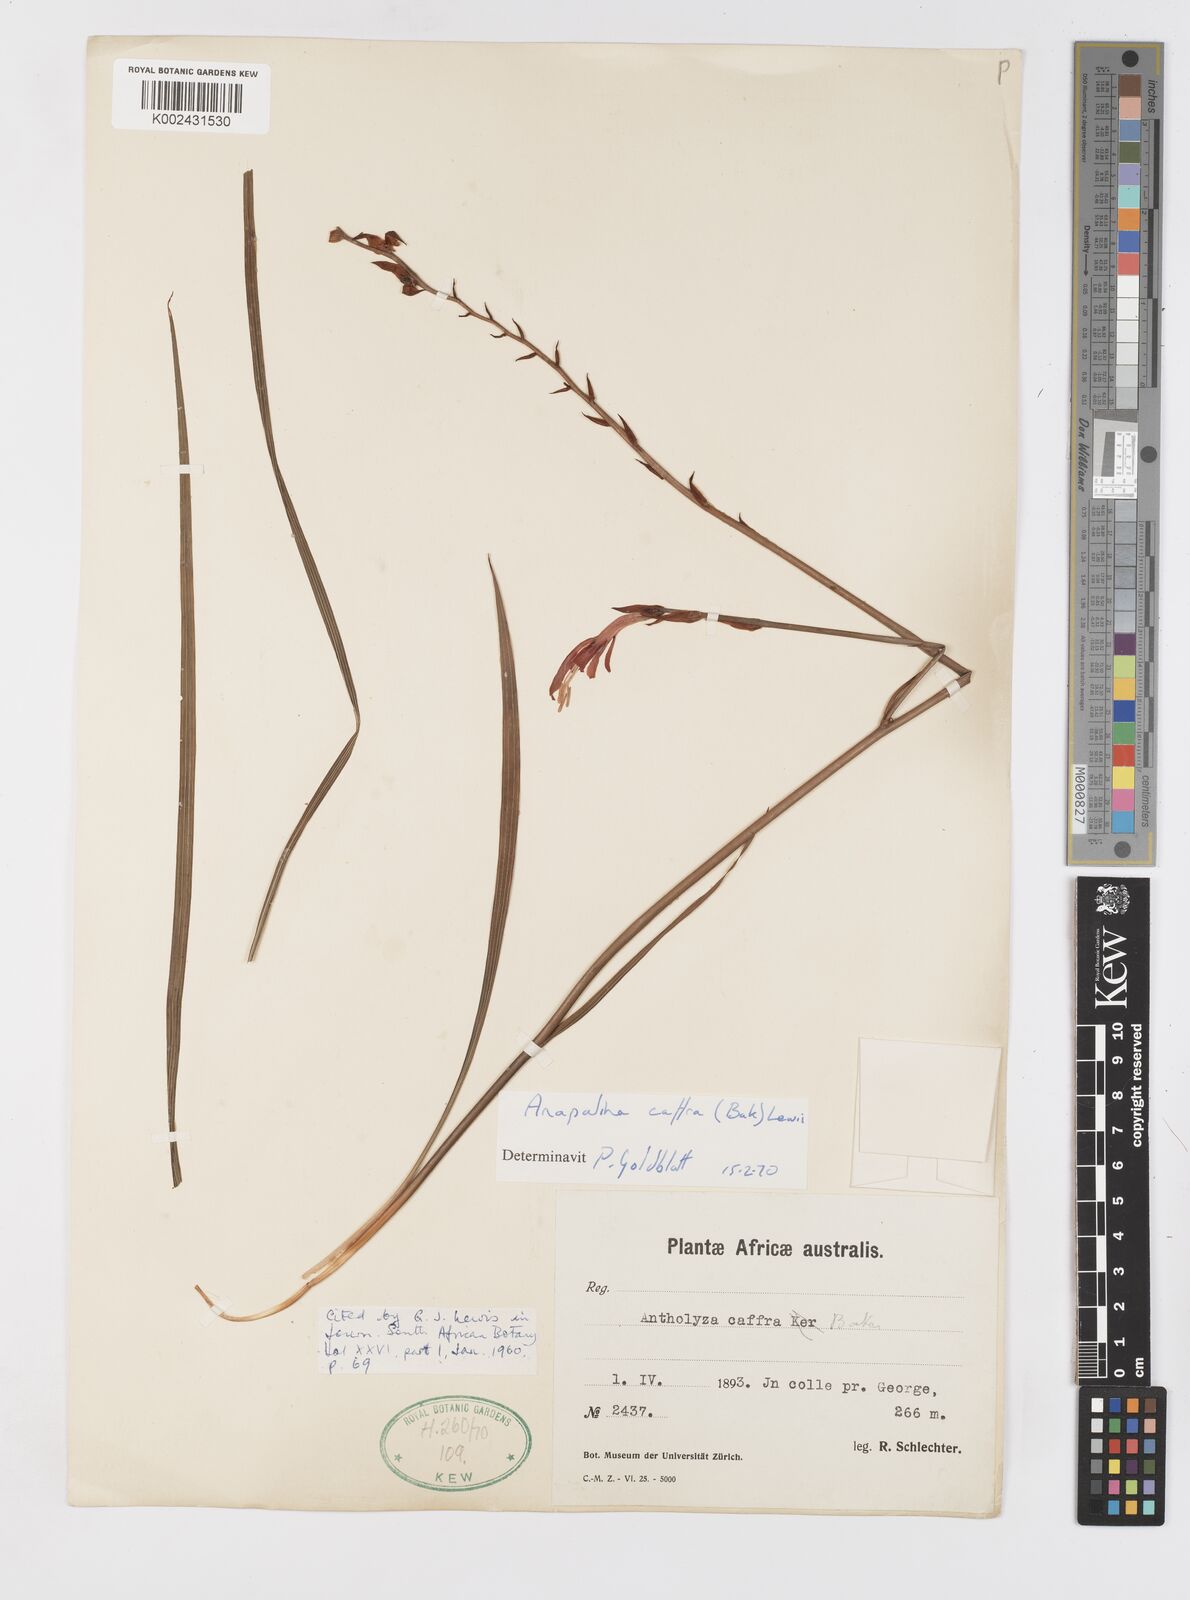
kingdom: Plantae
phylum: Tracheophyta
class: Liliopsida
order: Asparagales
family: Iridaceae
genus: Tritoniopsis
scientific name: Tritoniopsis caffra
